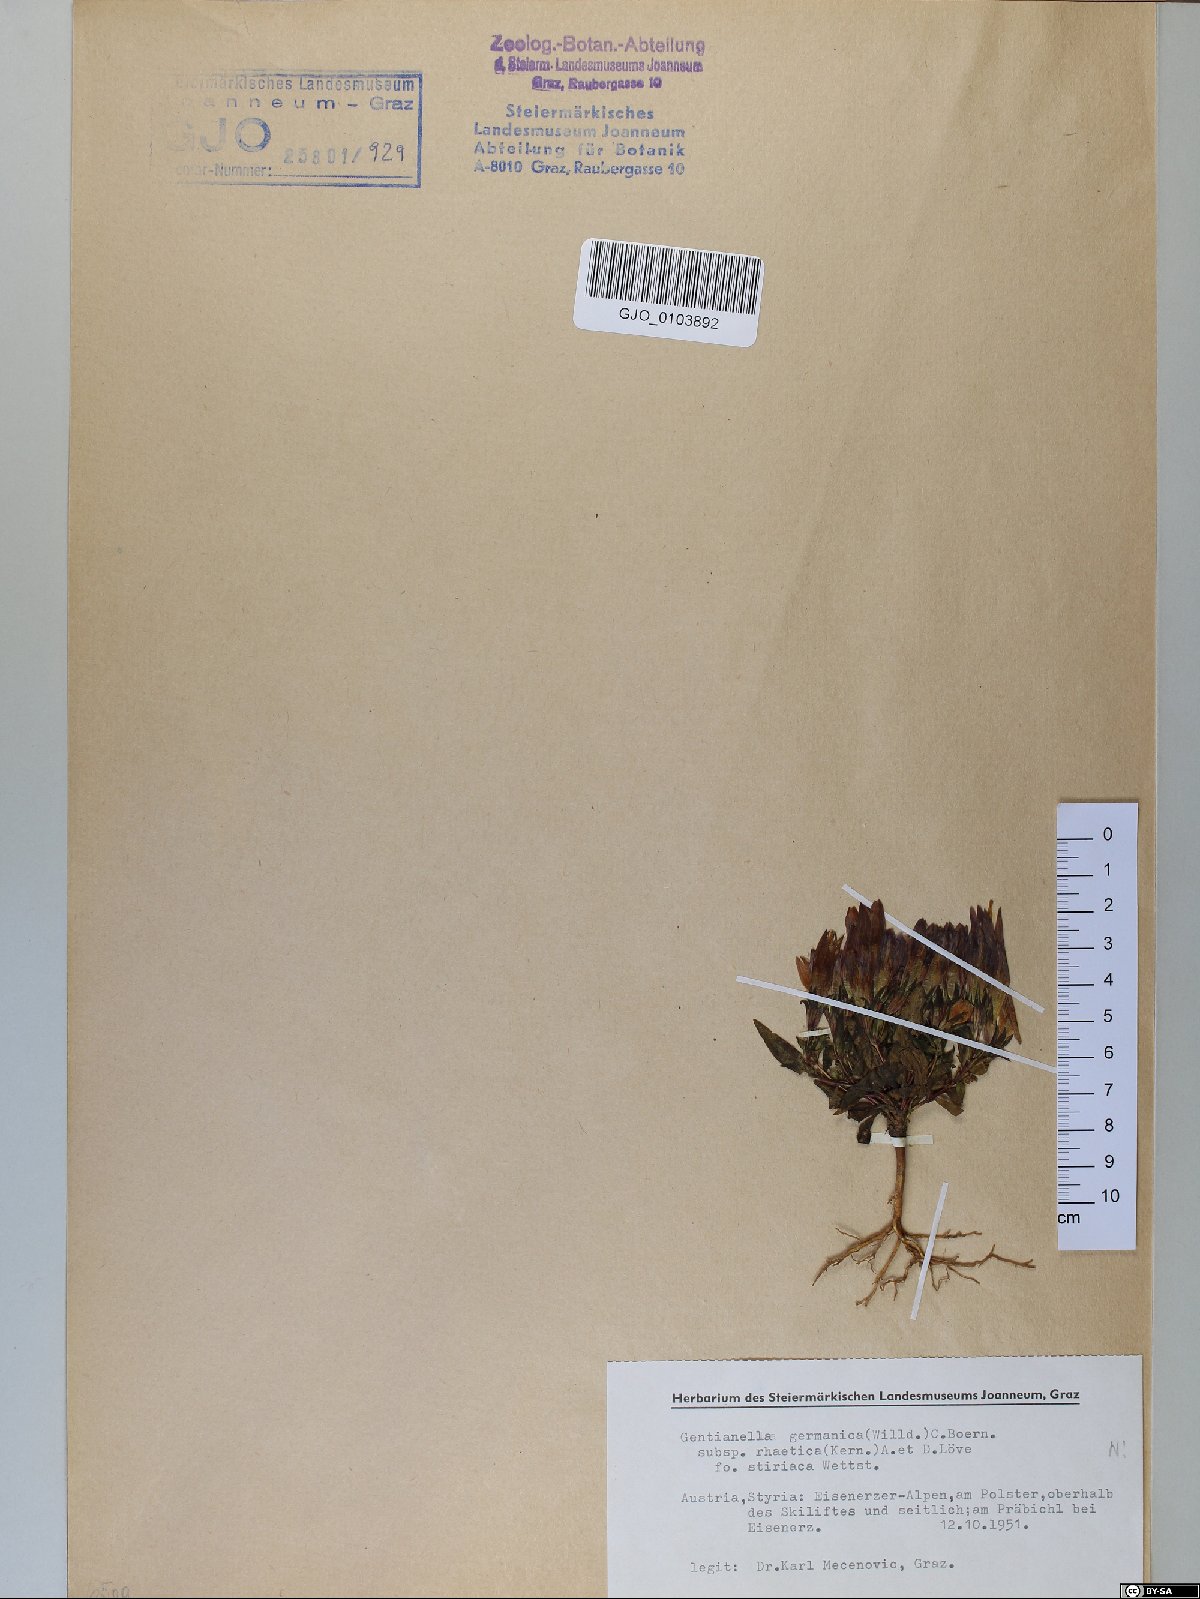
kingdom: Plantae
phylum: Tracheophyta
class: Magnoliopsida
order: Gentianales
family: Gentianaceae
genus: Gentianella
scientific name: Gentianella
